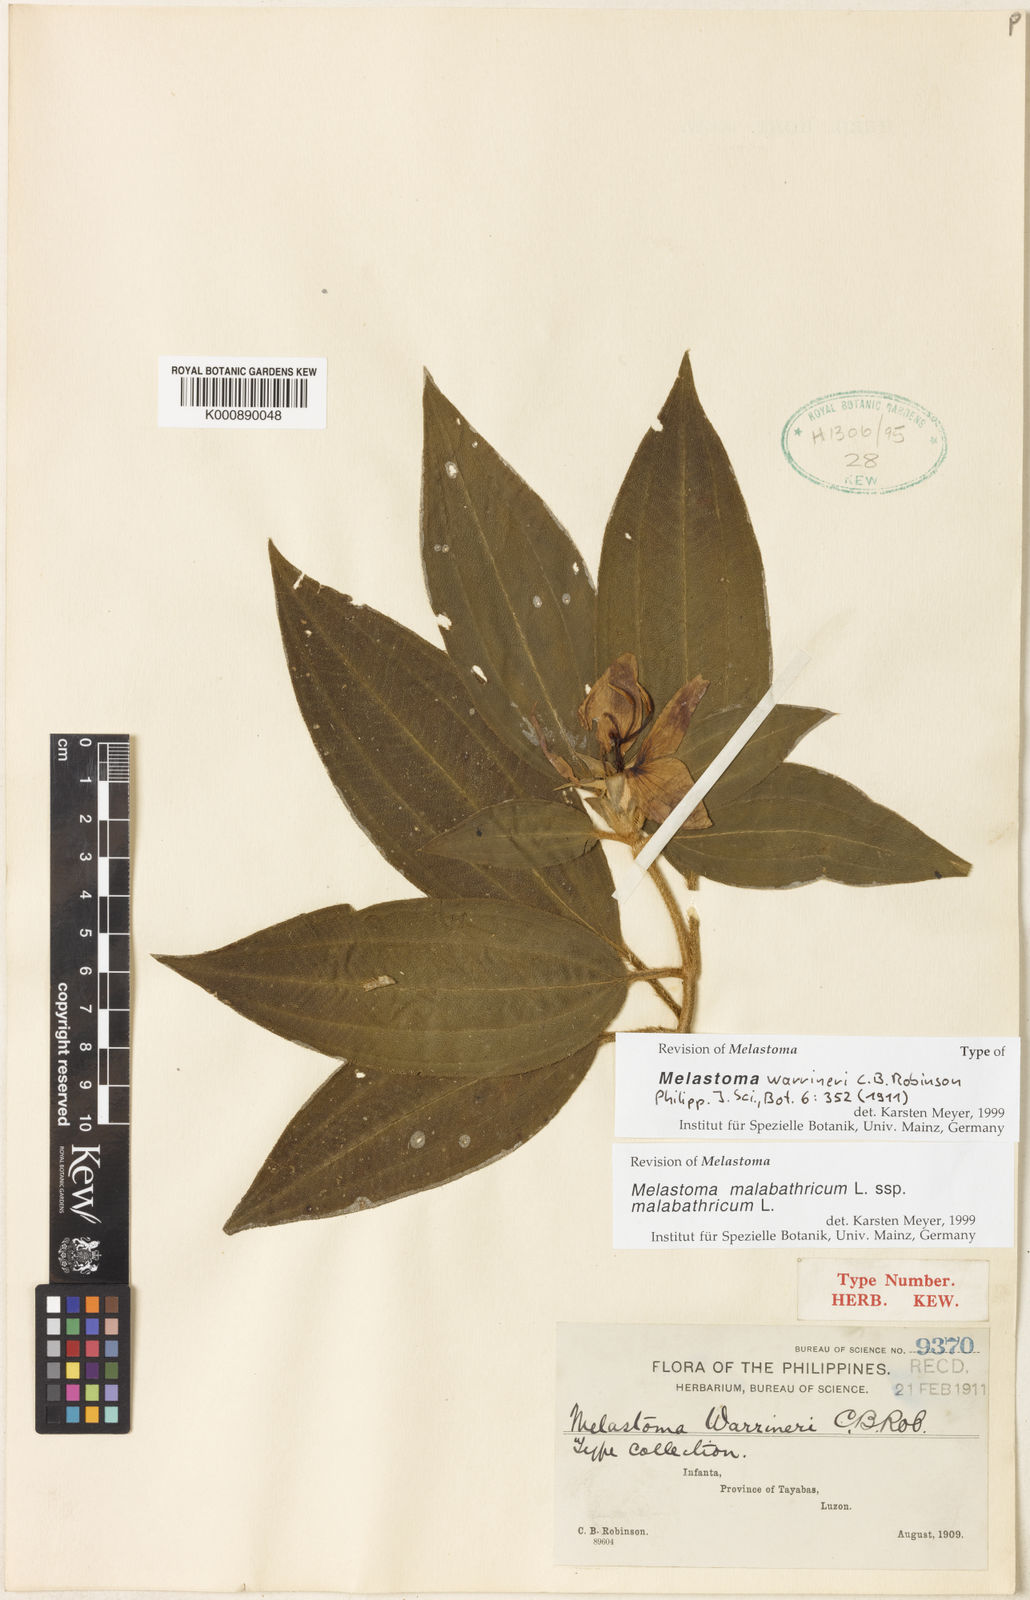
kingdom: Plantae
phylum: Tracheophyta
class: Magnoliopsida
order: Myrtales
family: Melastomataceae
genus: Melastoma
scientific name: Melastoma malabathricum
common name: Indian-rhododendron
